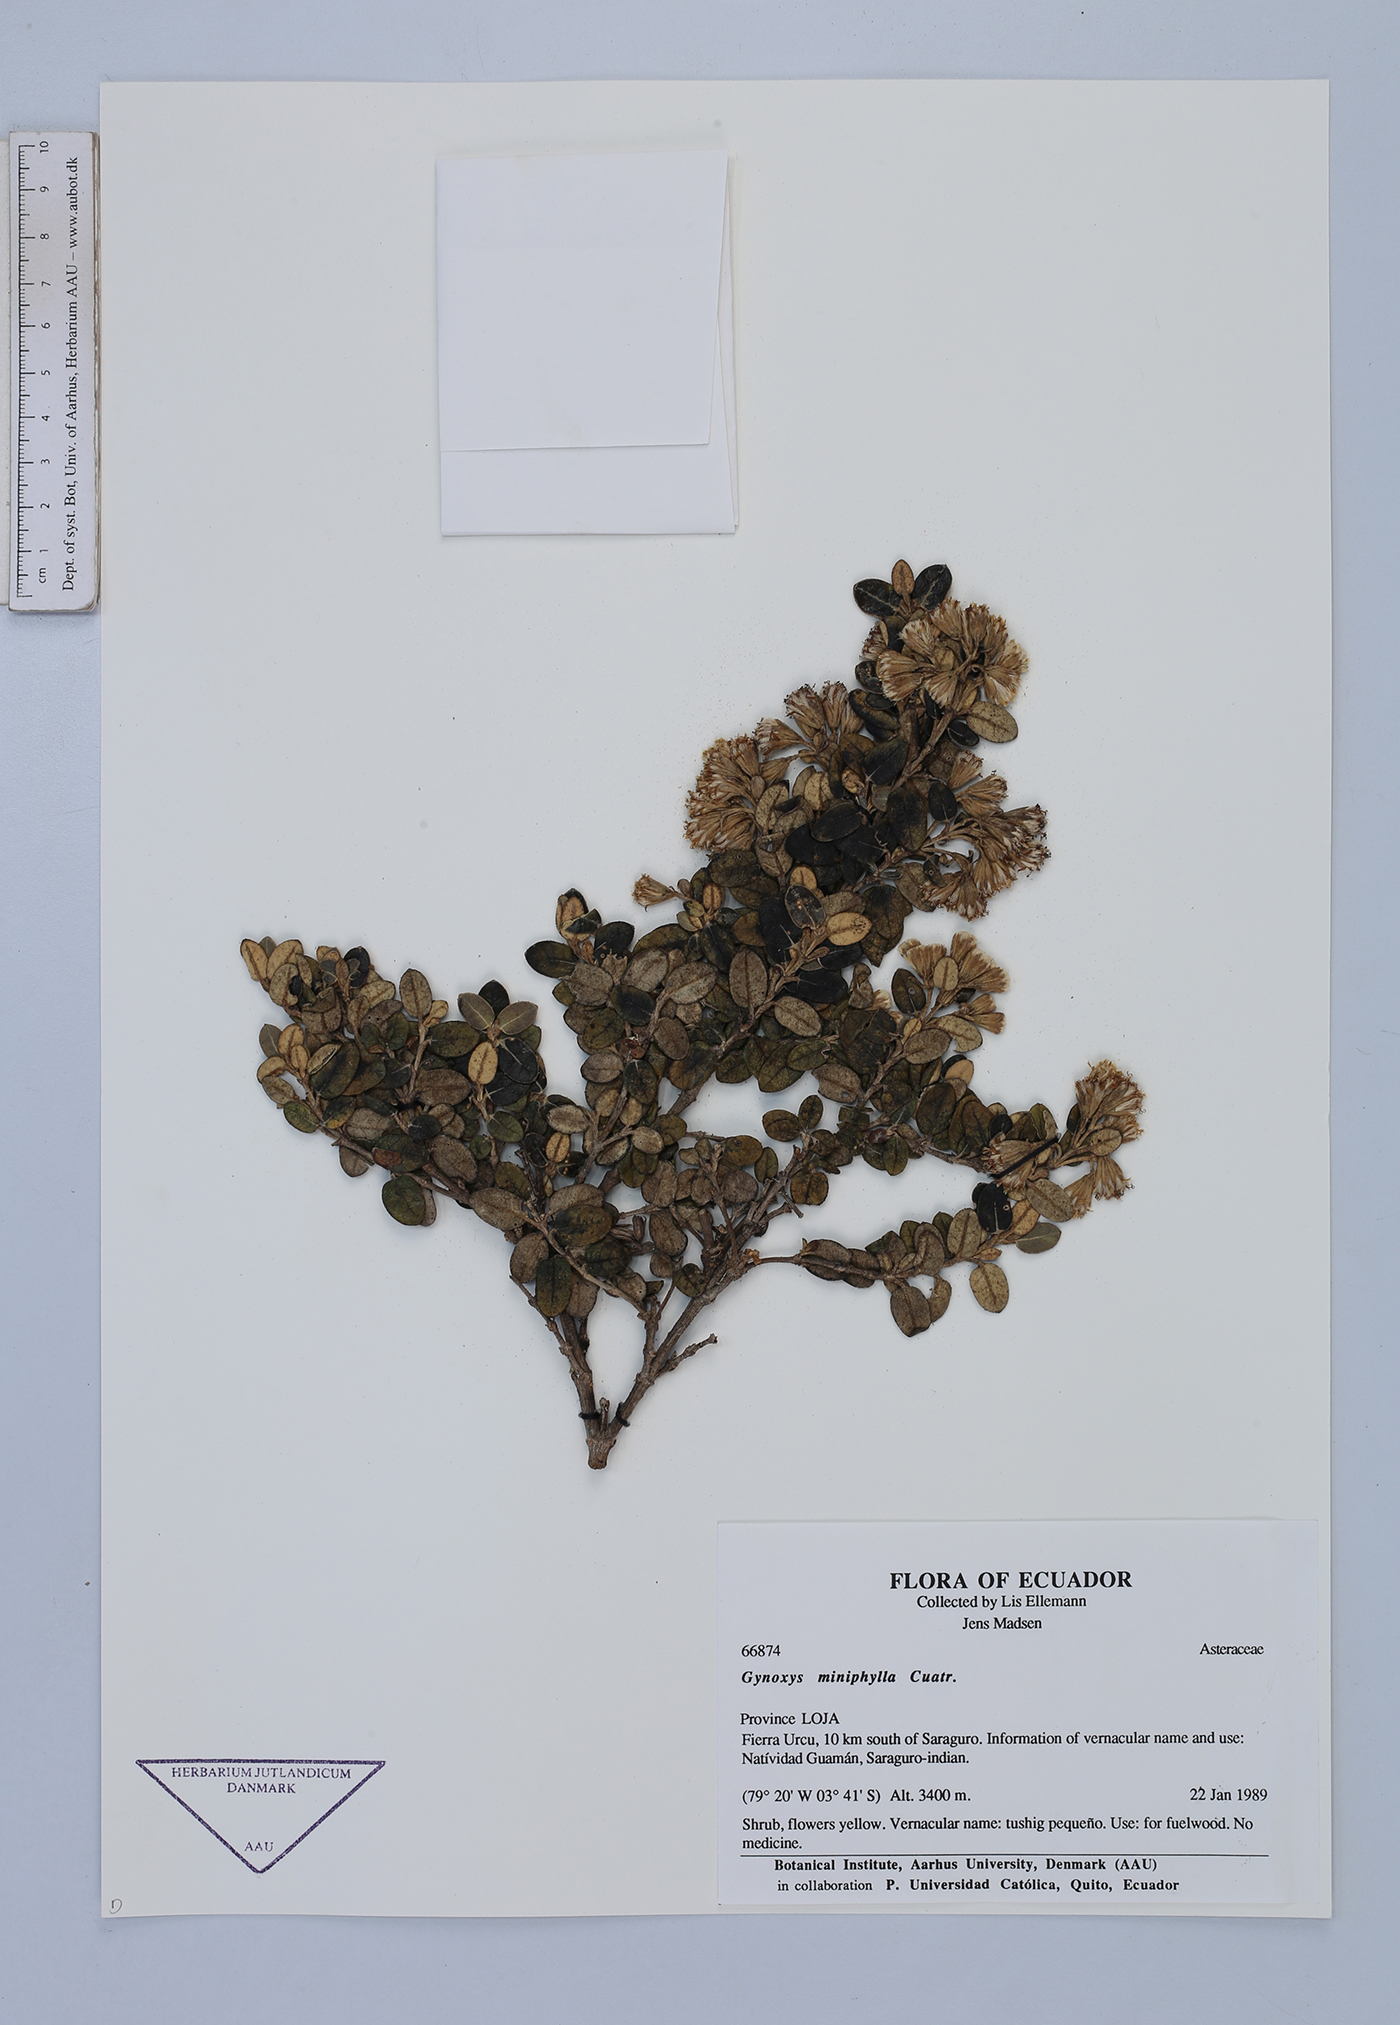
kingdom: Plantae
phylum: Tracheophyta
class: Magnoliopsida
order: Asterales
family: Asteraceae
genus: Gynoxys
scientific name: Gynoxys miniphylla
